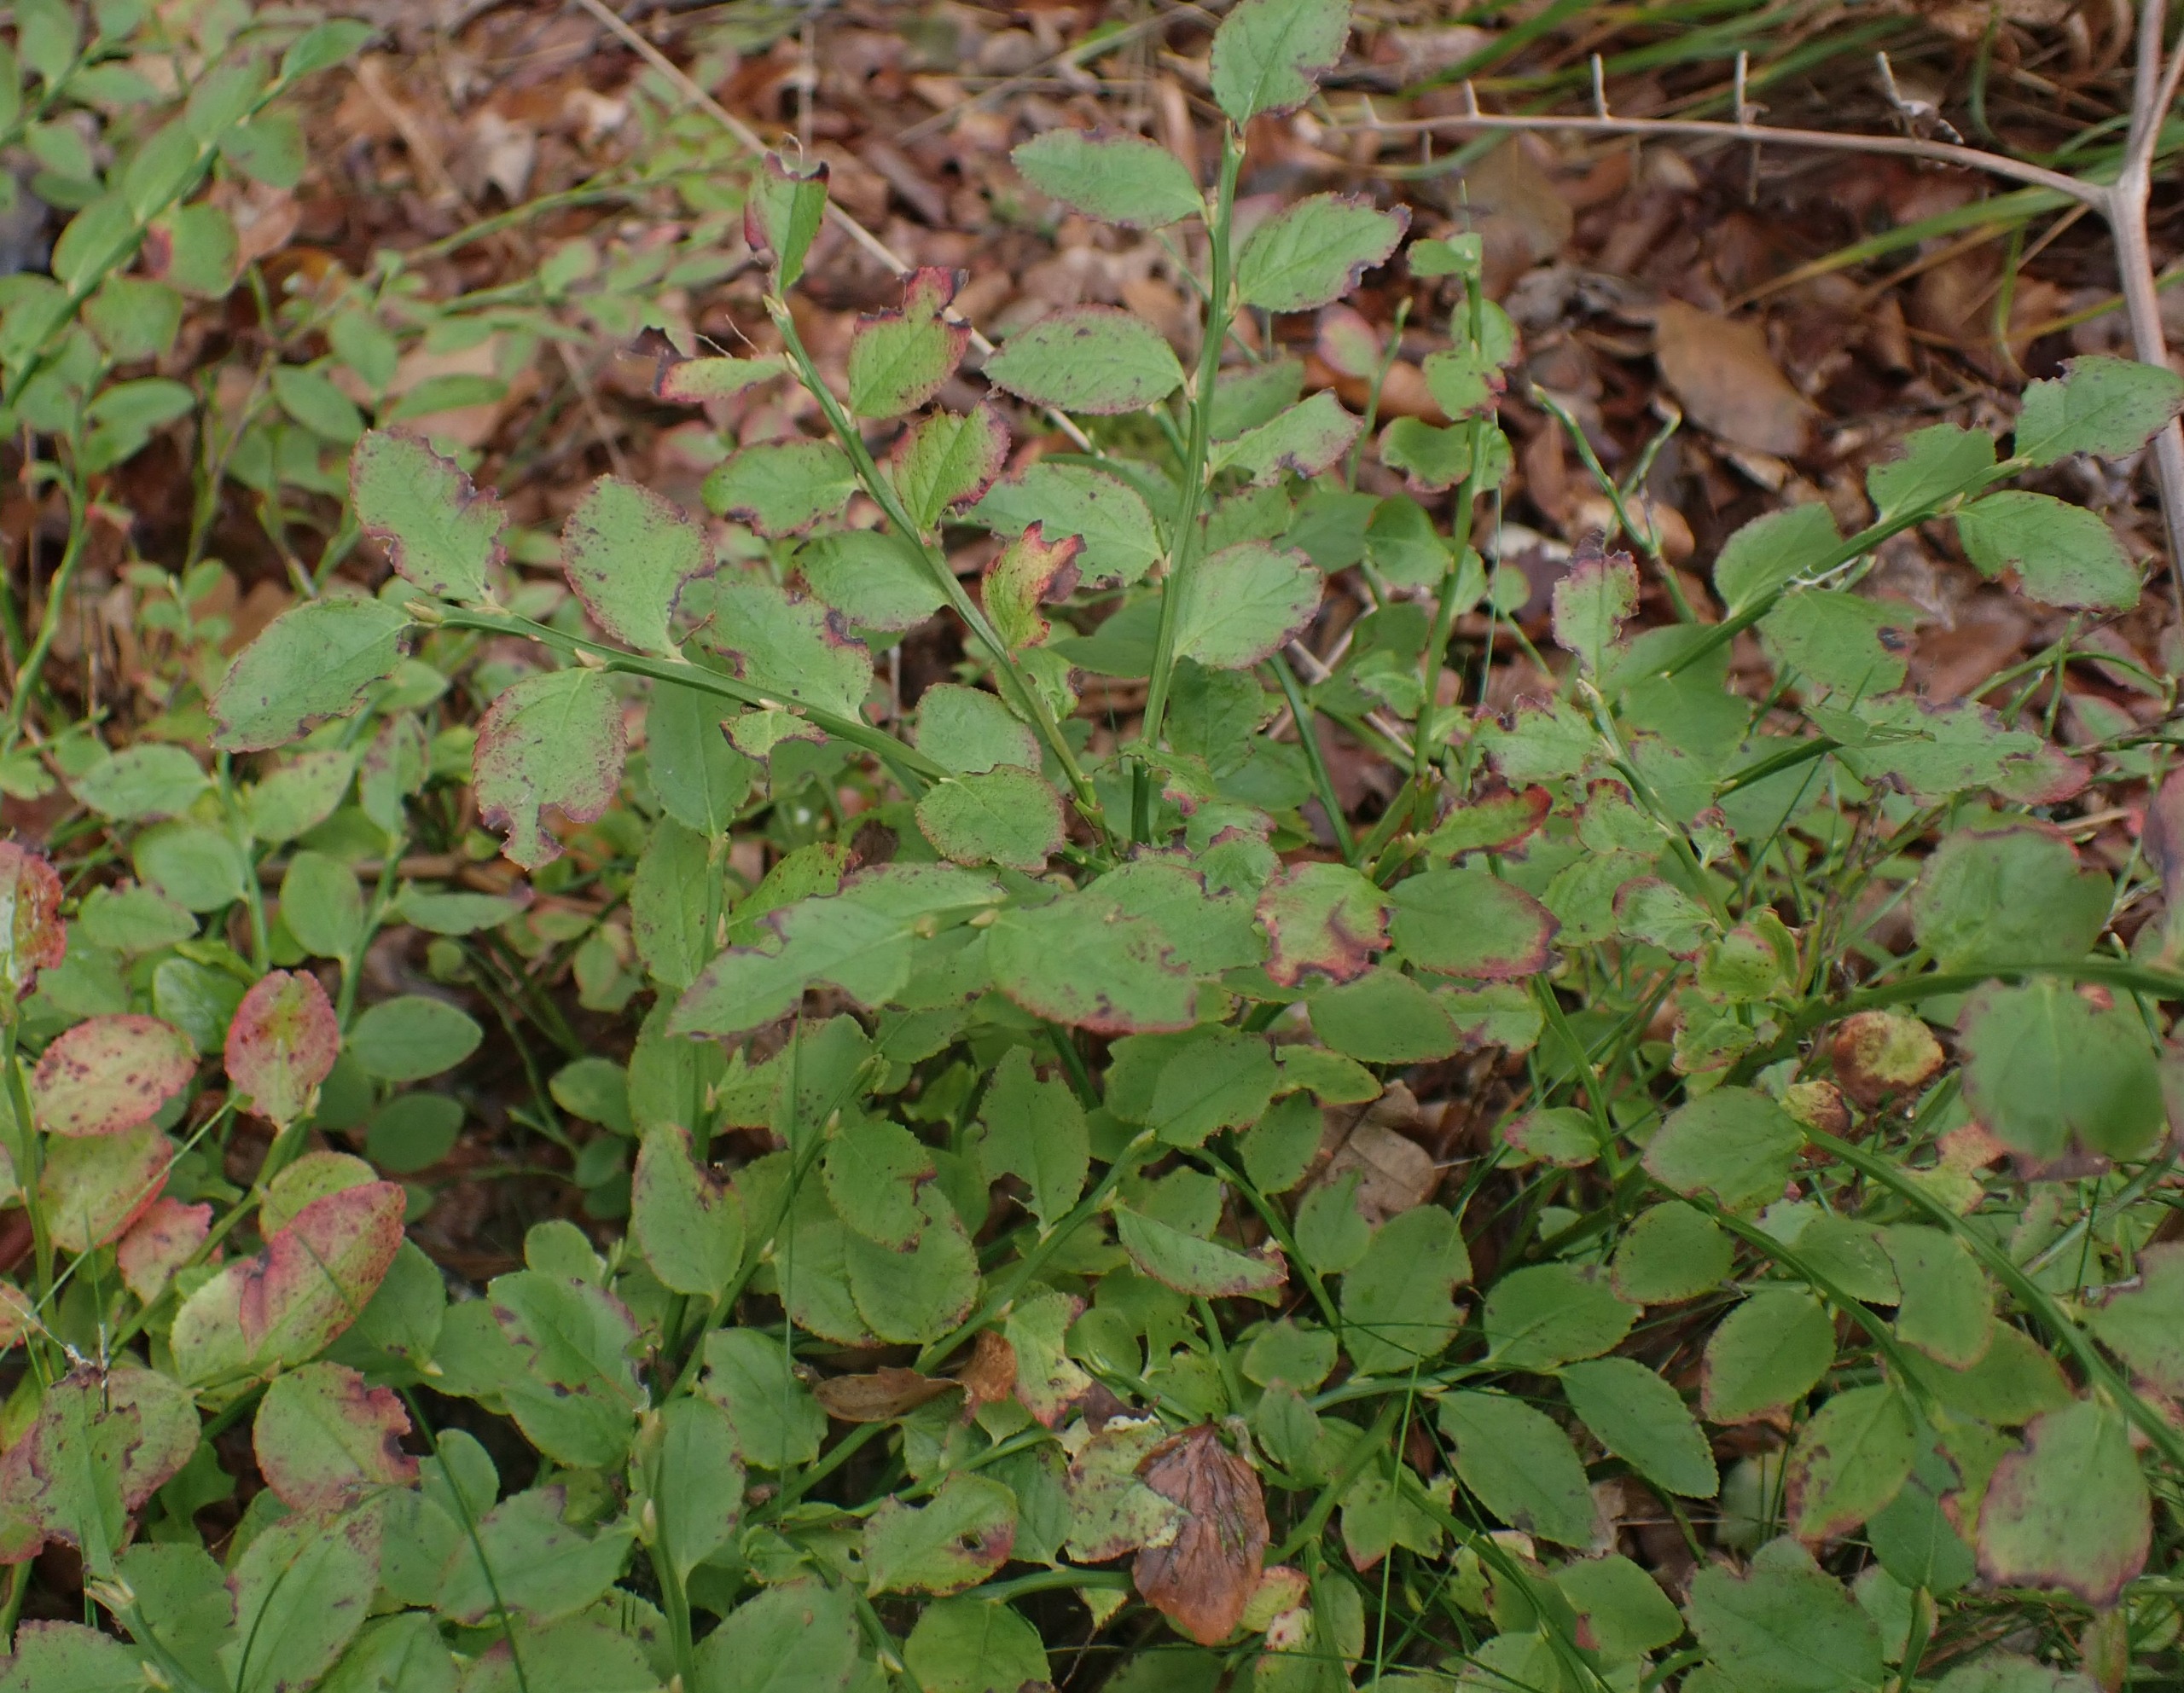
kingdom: Plantae
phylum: Tracheophyta
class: Magnoliopsida
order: Ericales
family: Ericaceae
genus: Vaccinium
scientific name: Vaccinium myrtillus
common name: Blåbær
